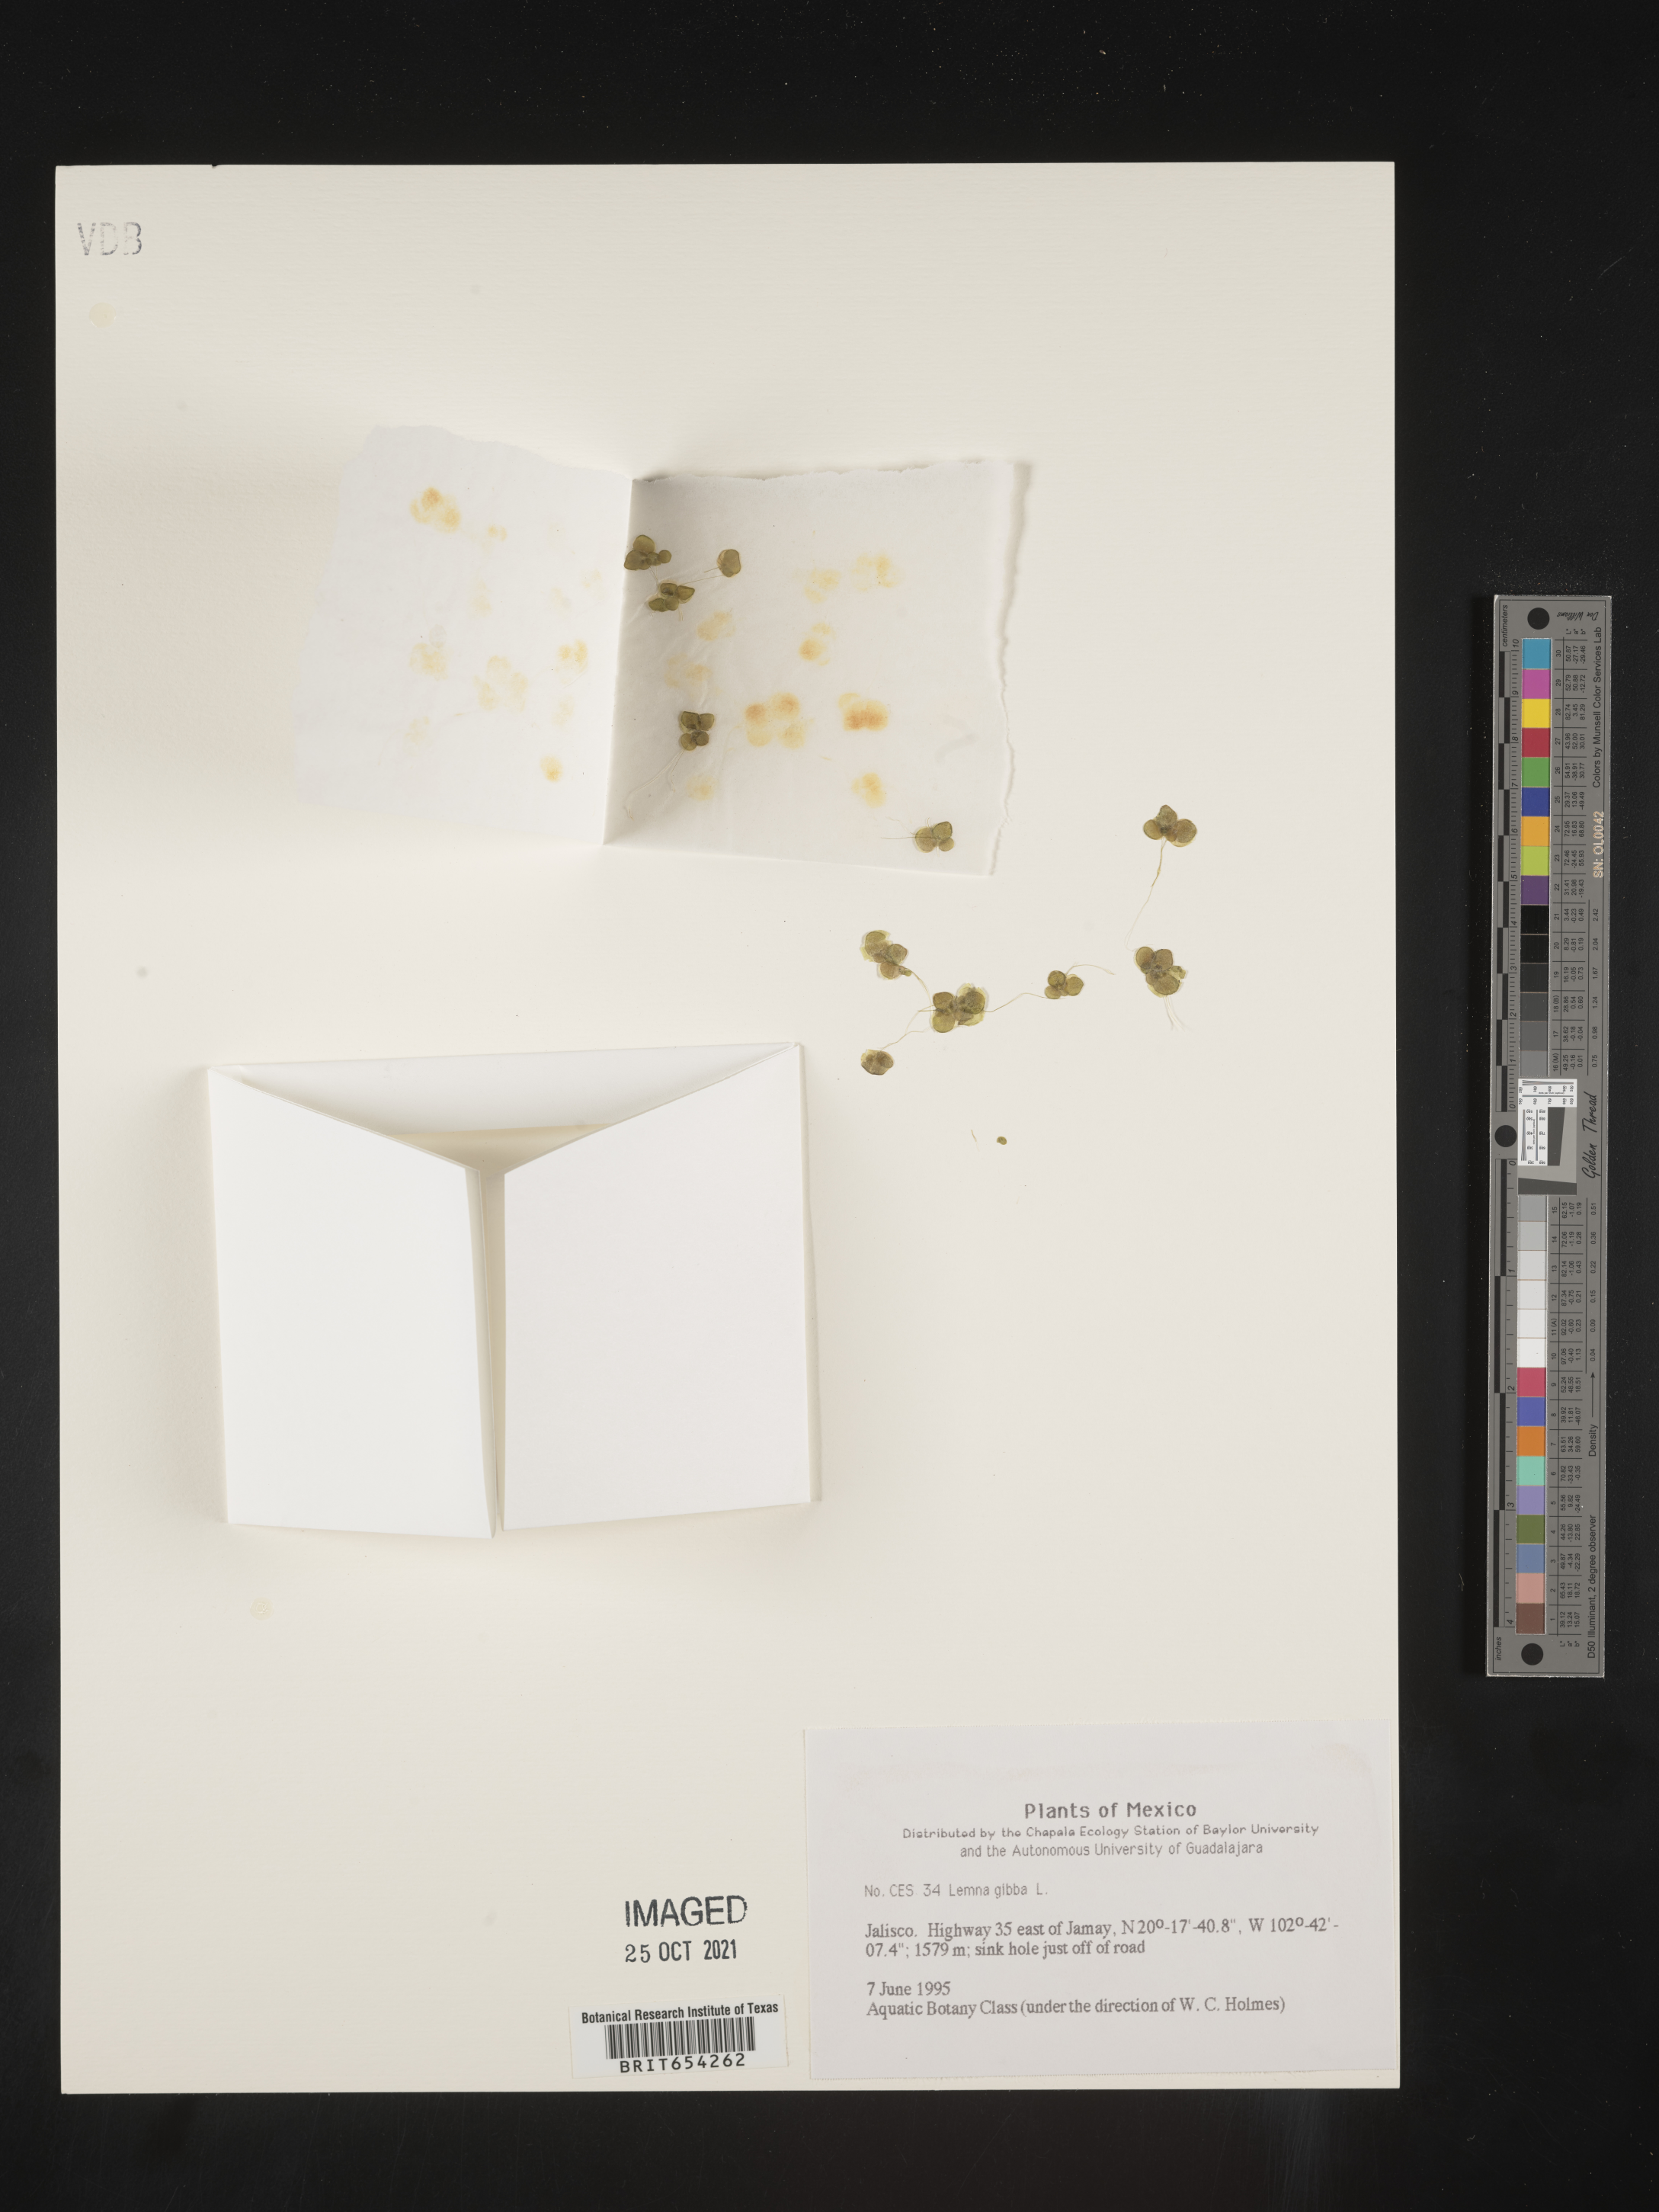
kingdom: Plantae
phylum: Tracheophyta
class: Liliopsida
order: Alismatales
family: Araceae
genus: Lemna
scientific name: Lemna
